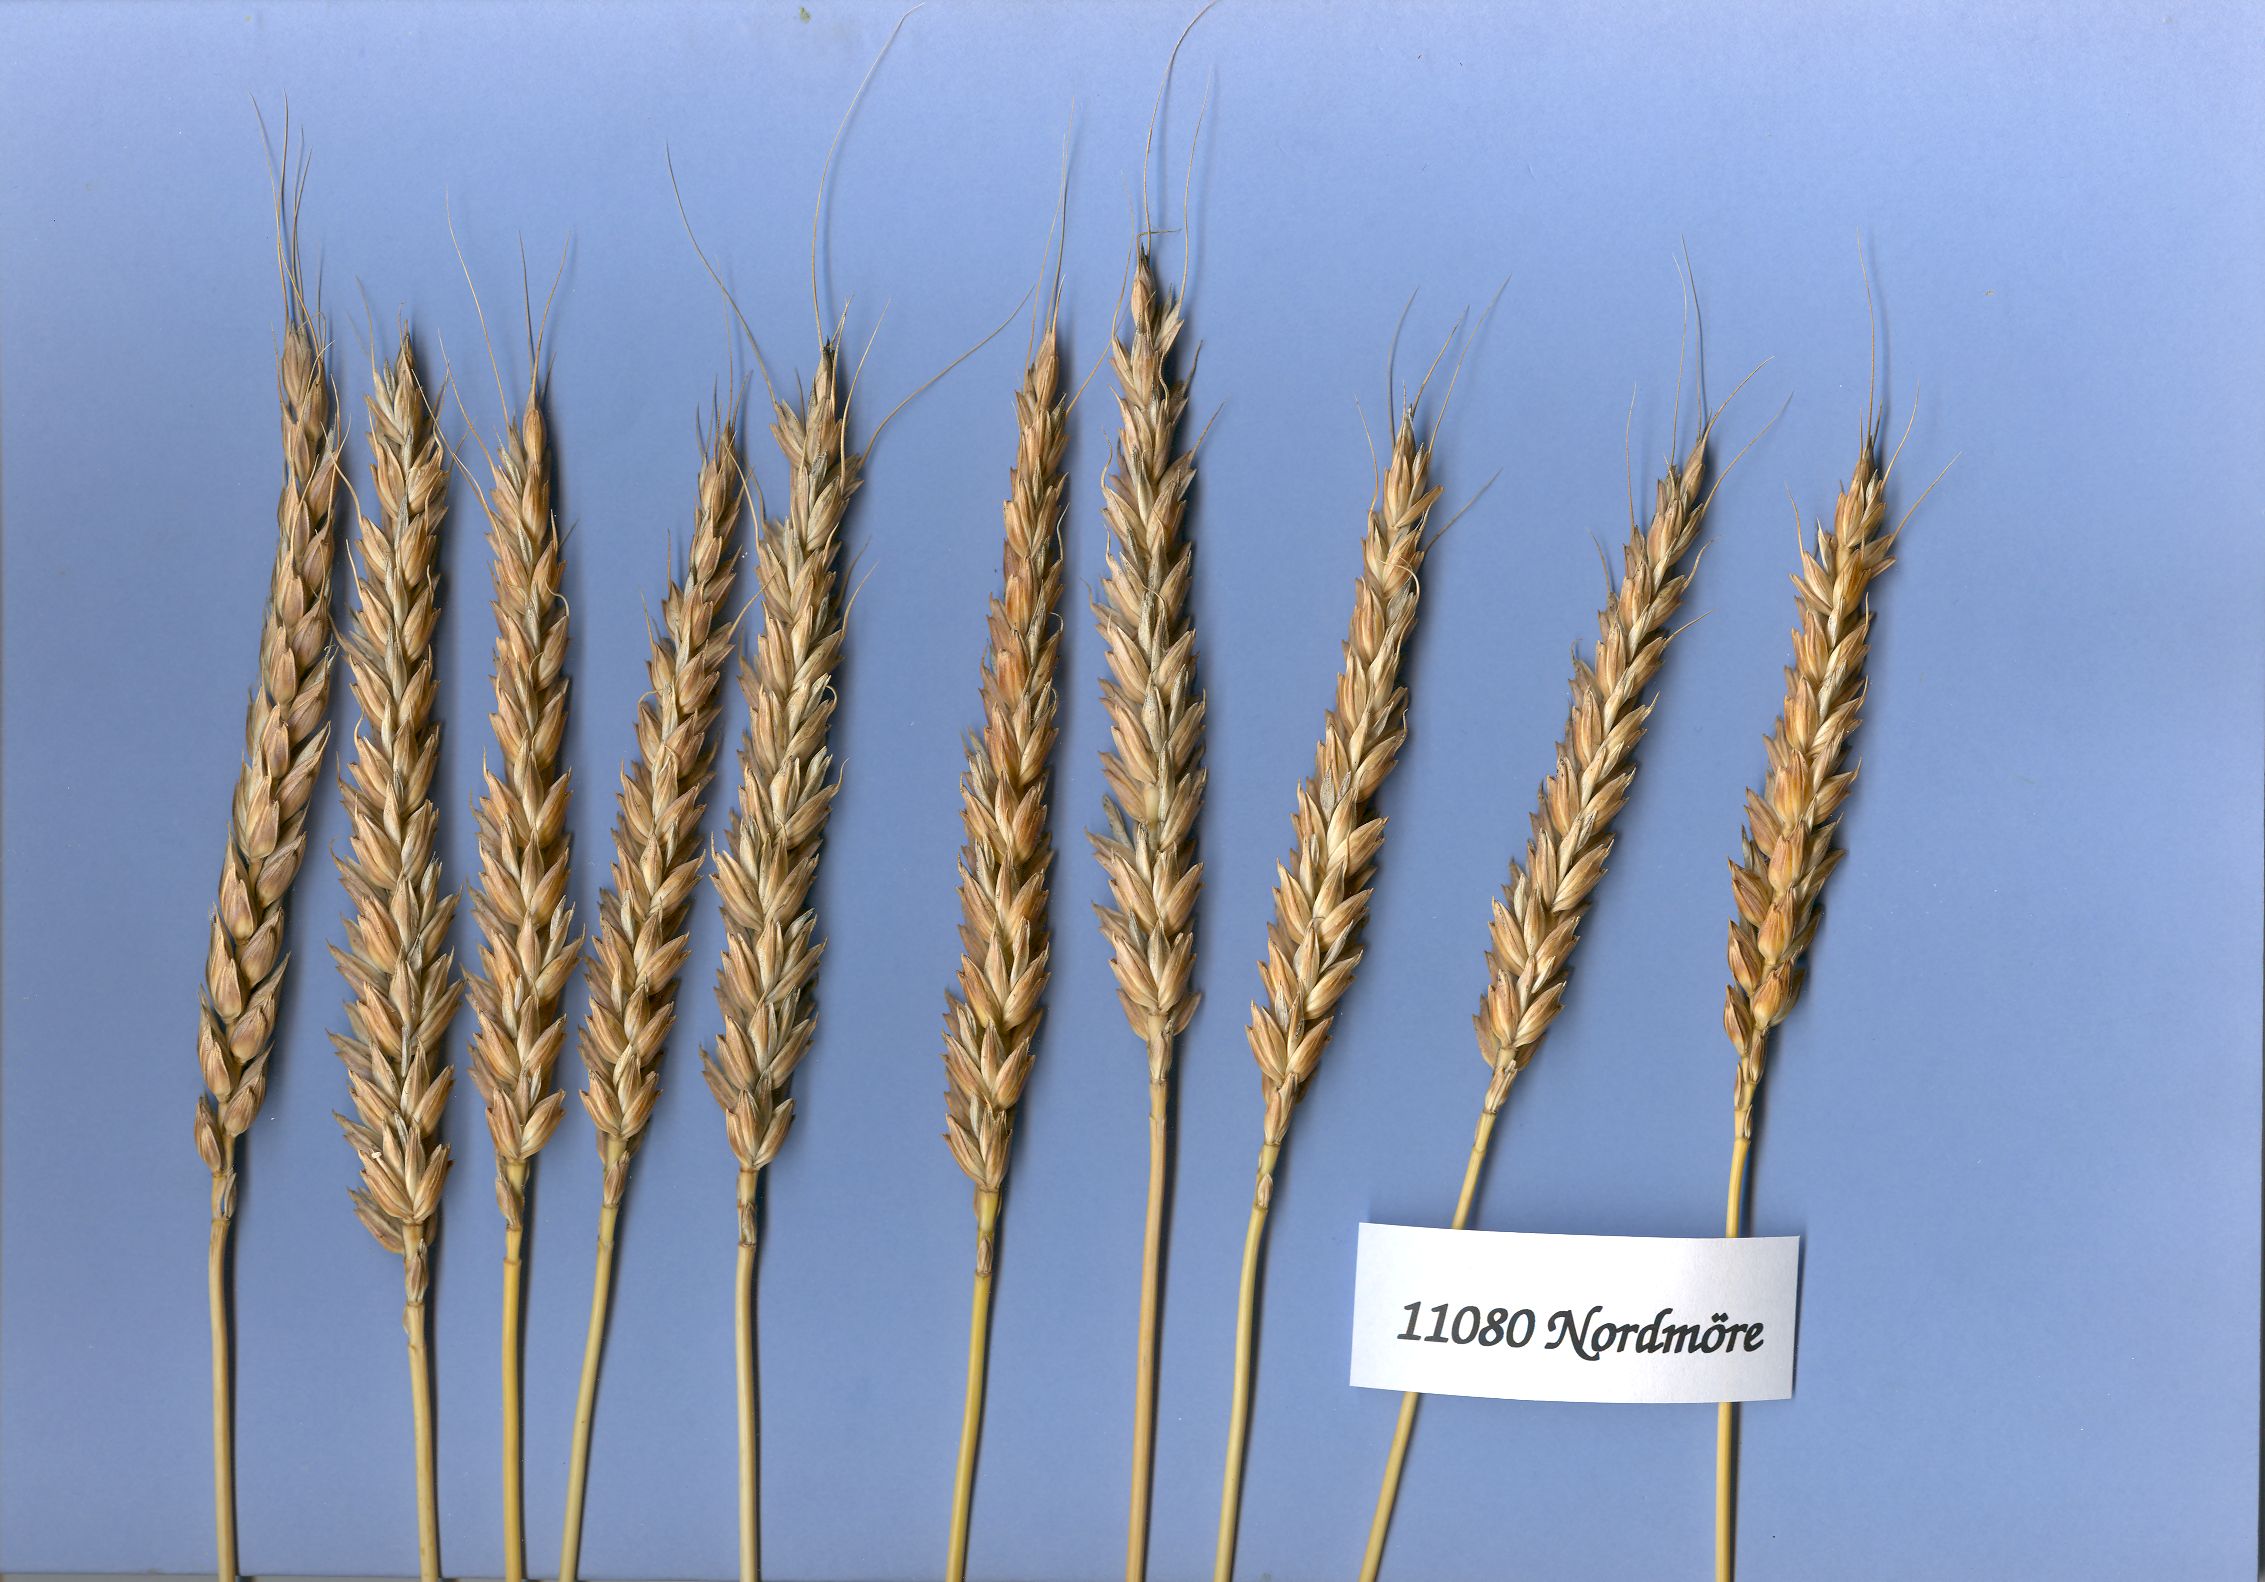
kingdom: Plantae
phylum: Tracheophyta
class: Liliopsida
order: Poales
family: Poaceae
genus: Triticum
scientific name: Triticum aestivum
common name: Common wheat
